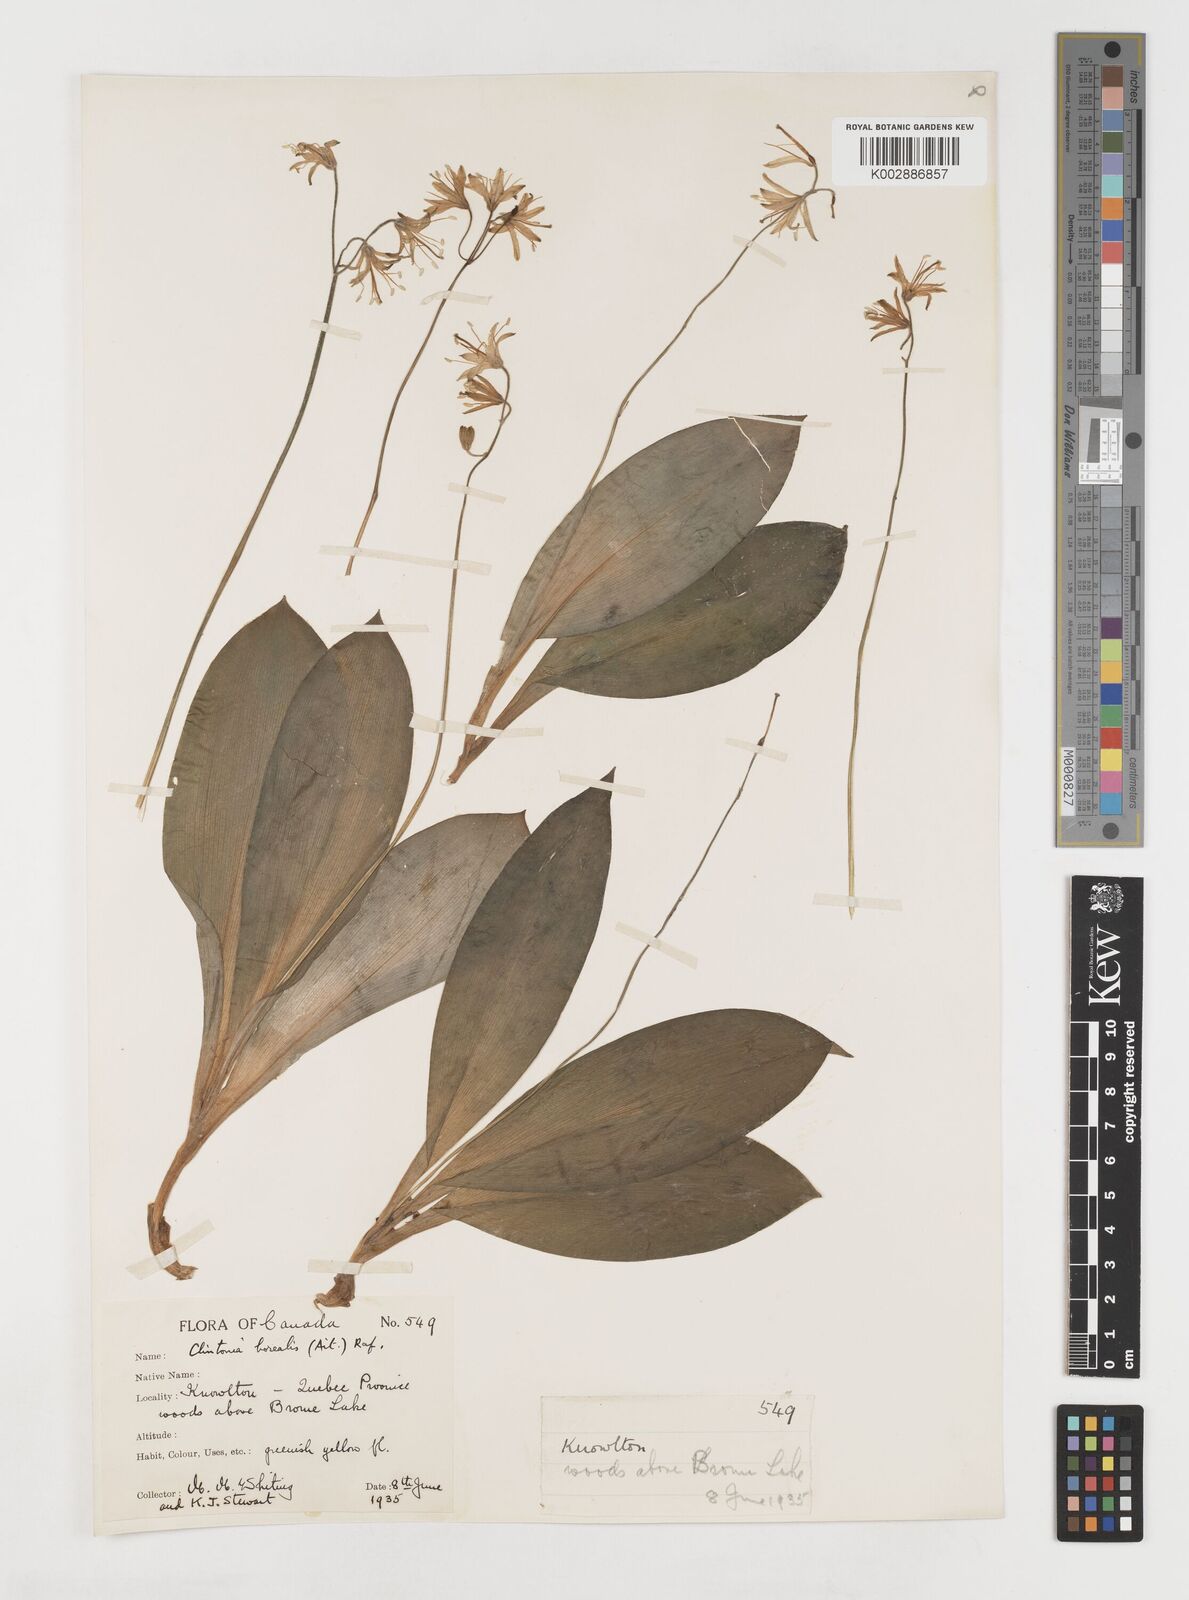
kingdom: Plantae
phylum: Tracheophyta
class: Liliopsida
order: Liliales
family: Liliaceae
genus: Clintonia
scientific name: Clintonia borealis
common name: Yellow clintonia
